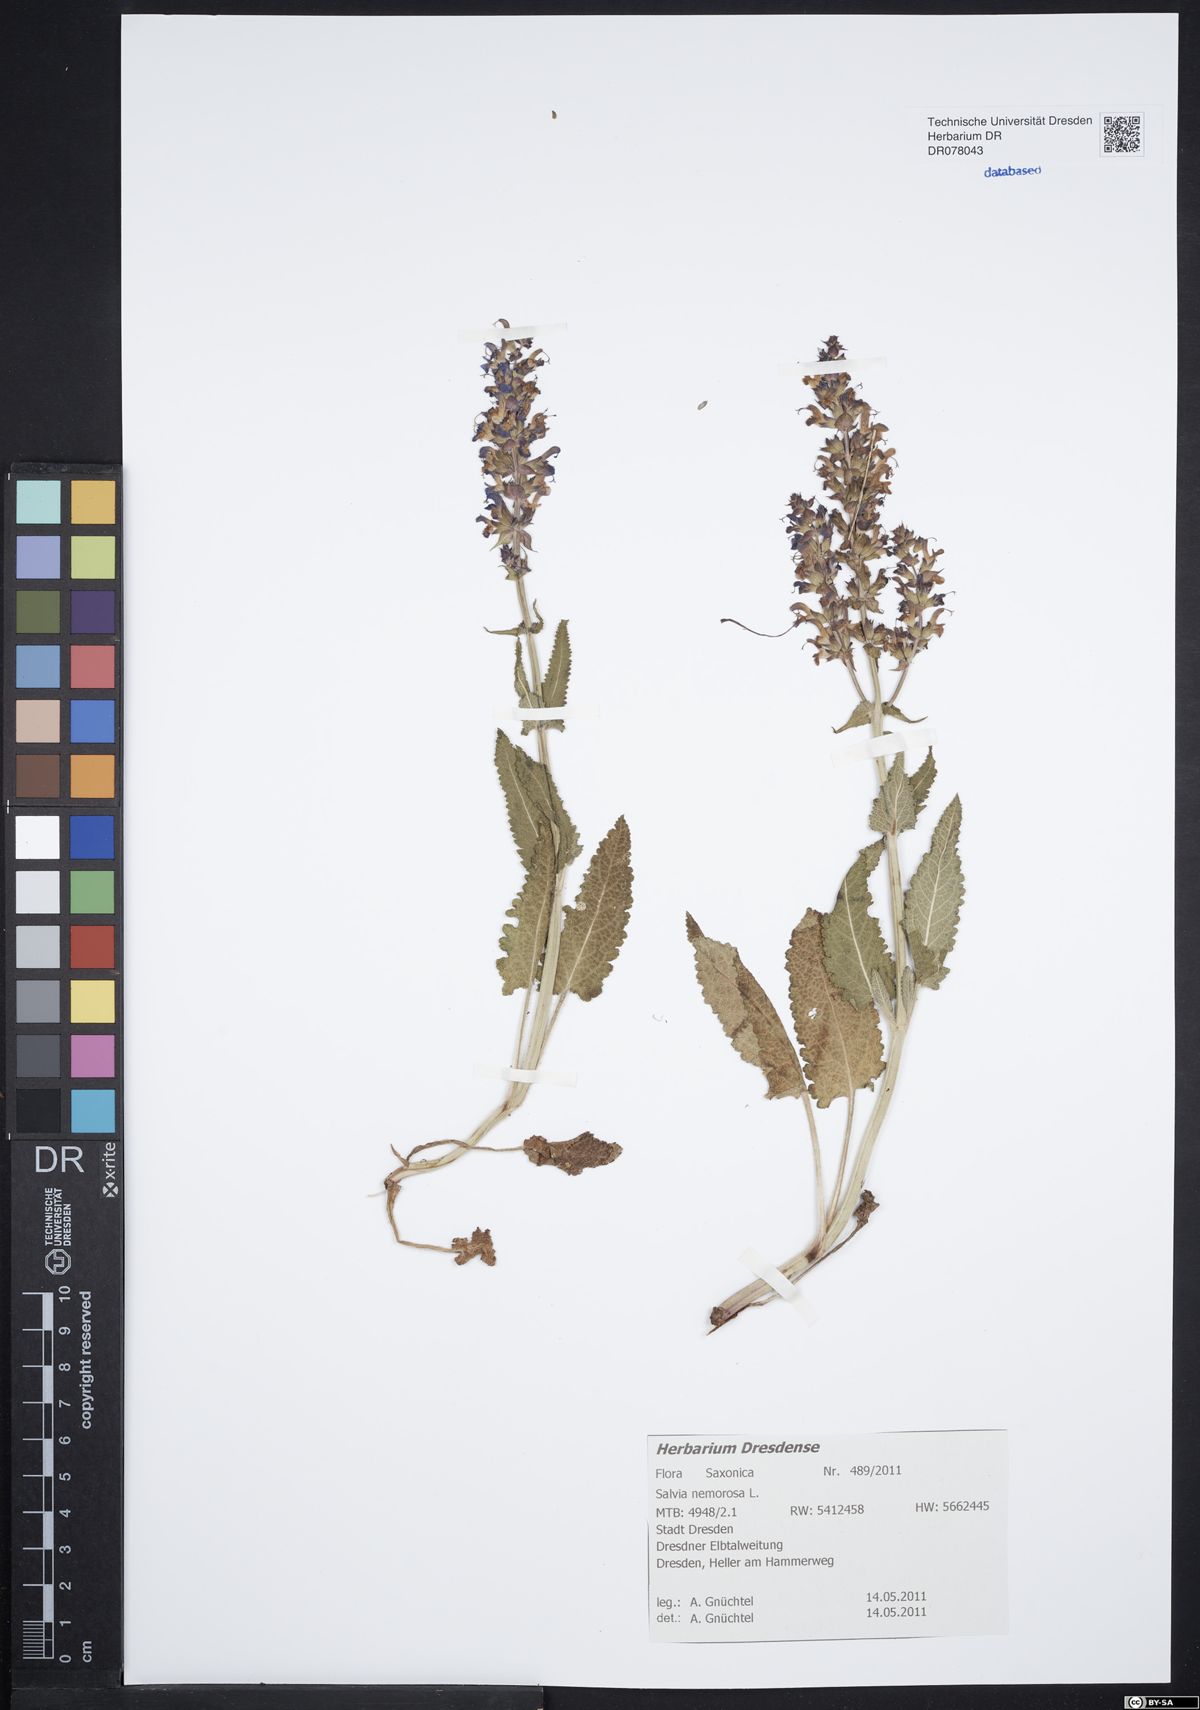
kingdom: Plantae
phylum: Tracheophyta
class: Magnoliopsida
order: Lamiales
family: Lamiaceae
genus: Salvia
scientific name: Salvia nemorosa
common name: Balkan clary
